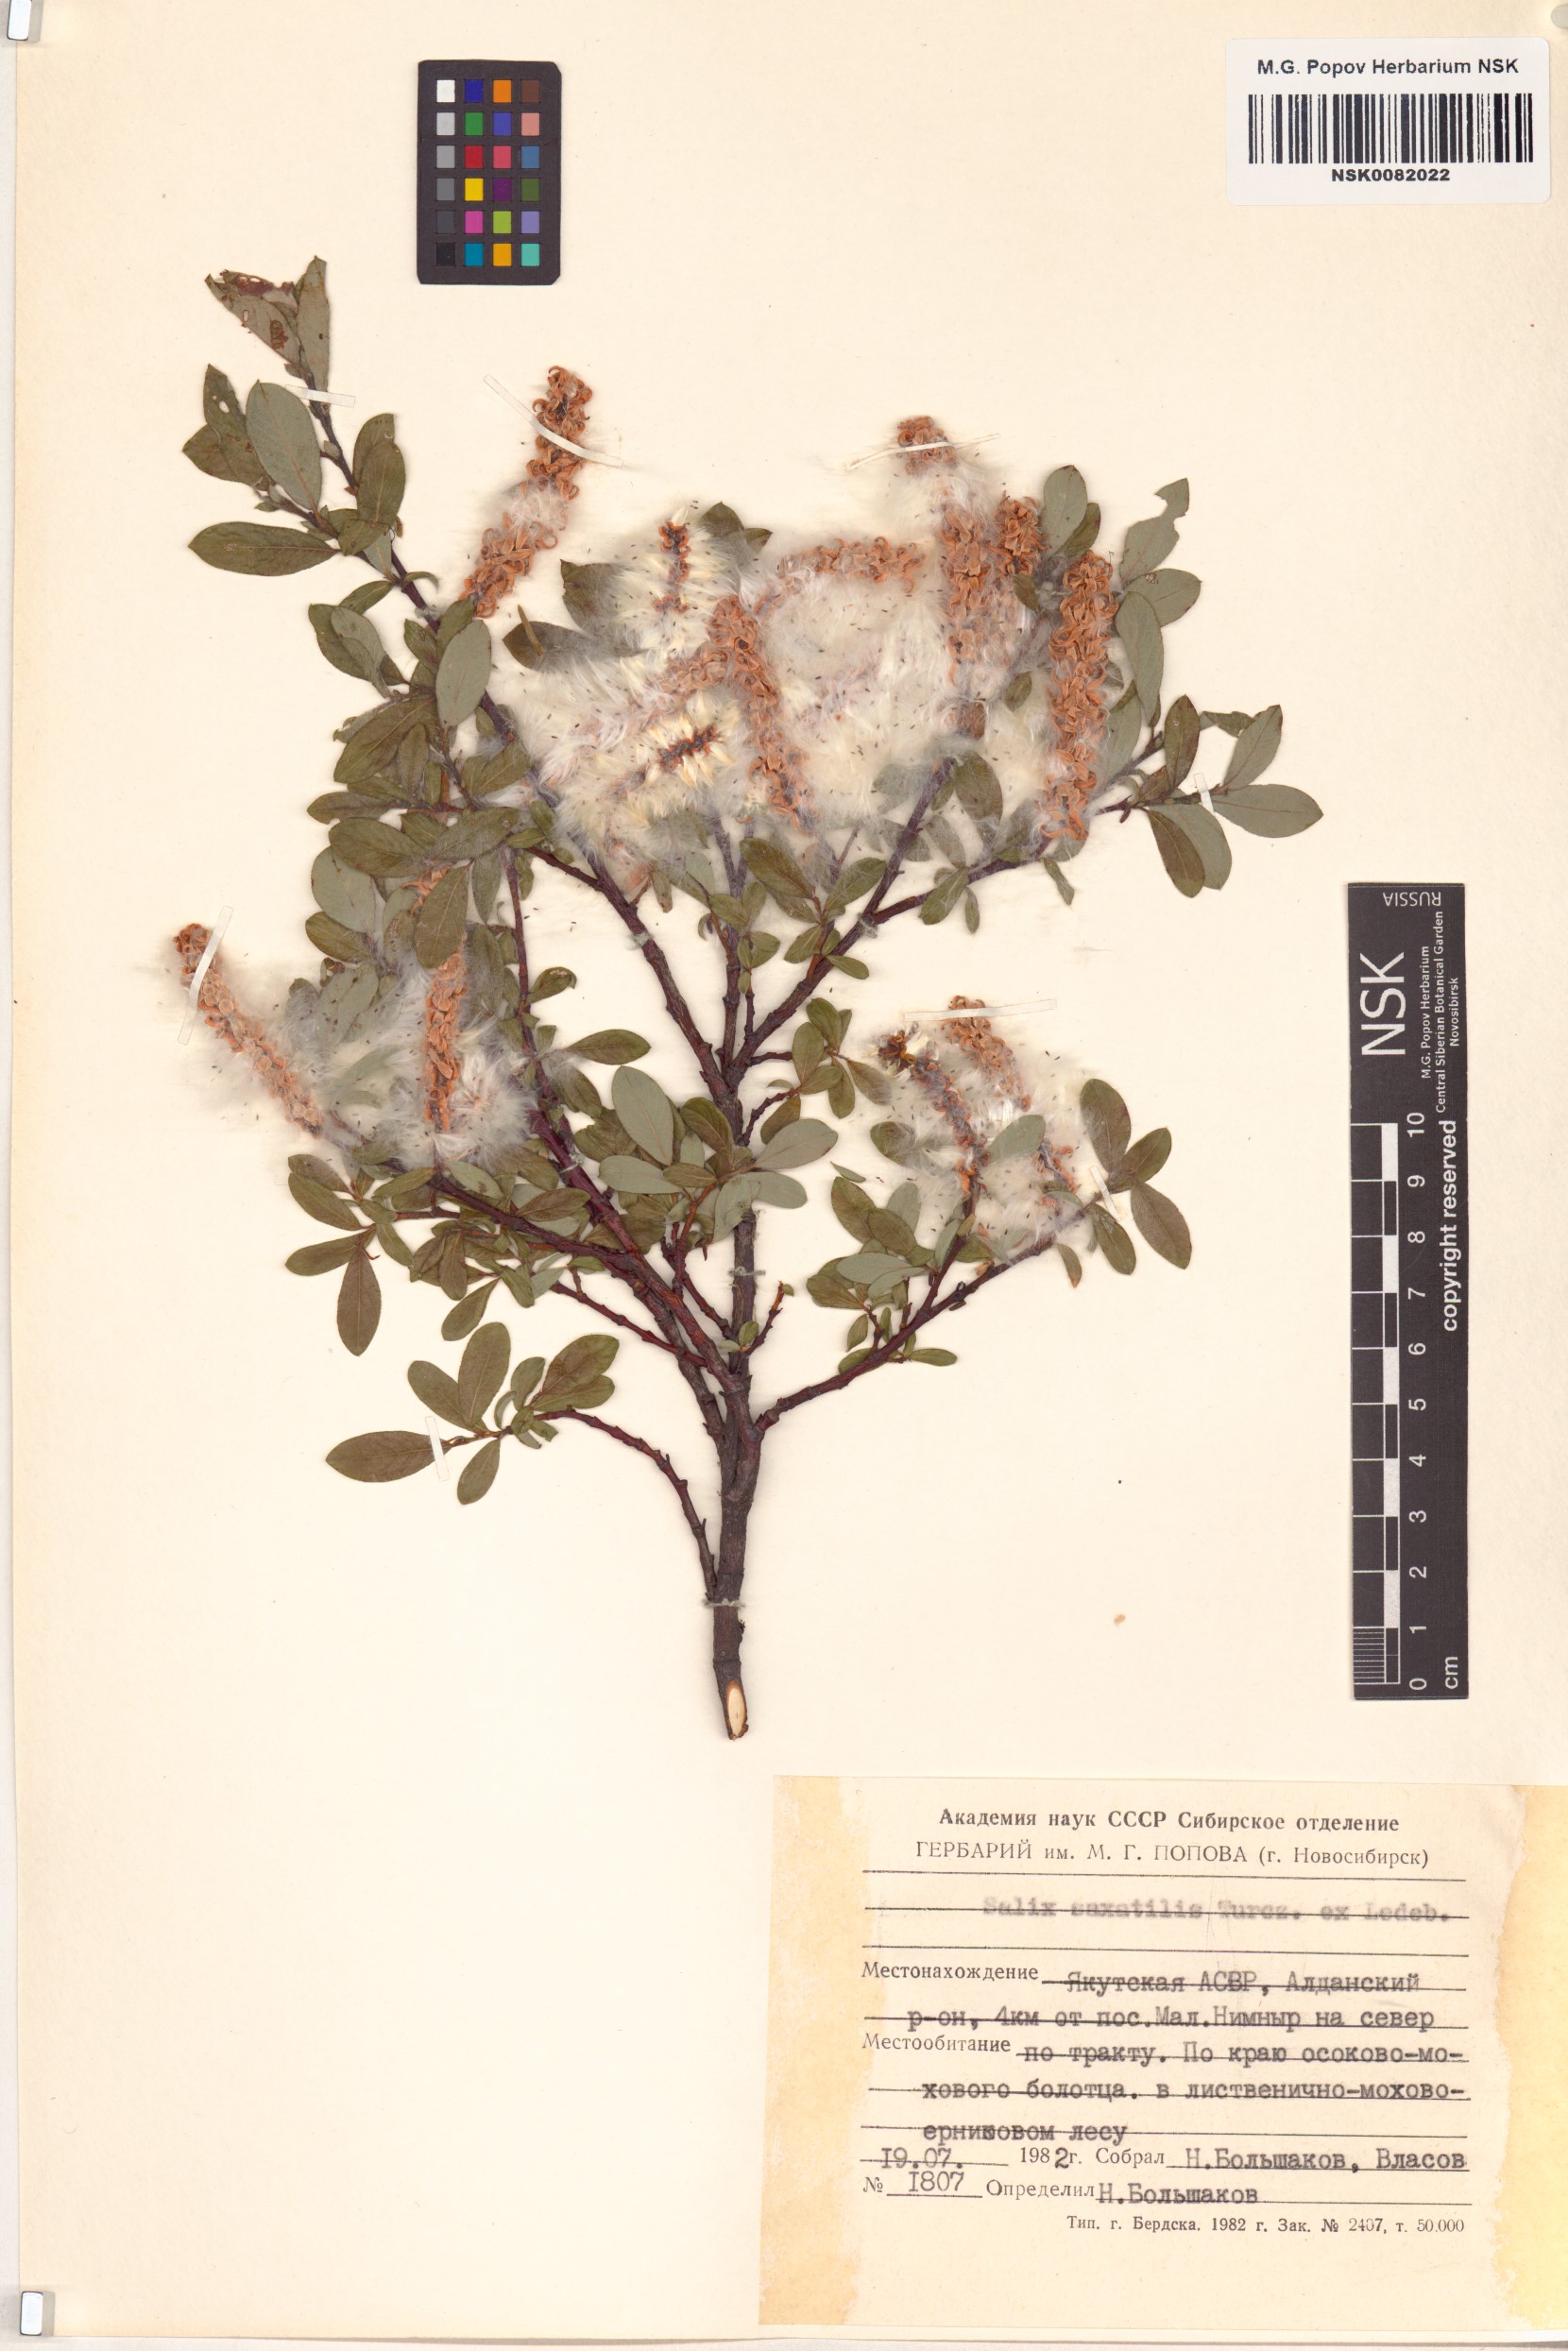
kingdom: Plantae
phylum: Tracheophyta
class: Magnoliopsida
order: Malpighiales
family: Salicaceae
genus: Salix
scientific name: Salix saxatilis
